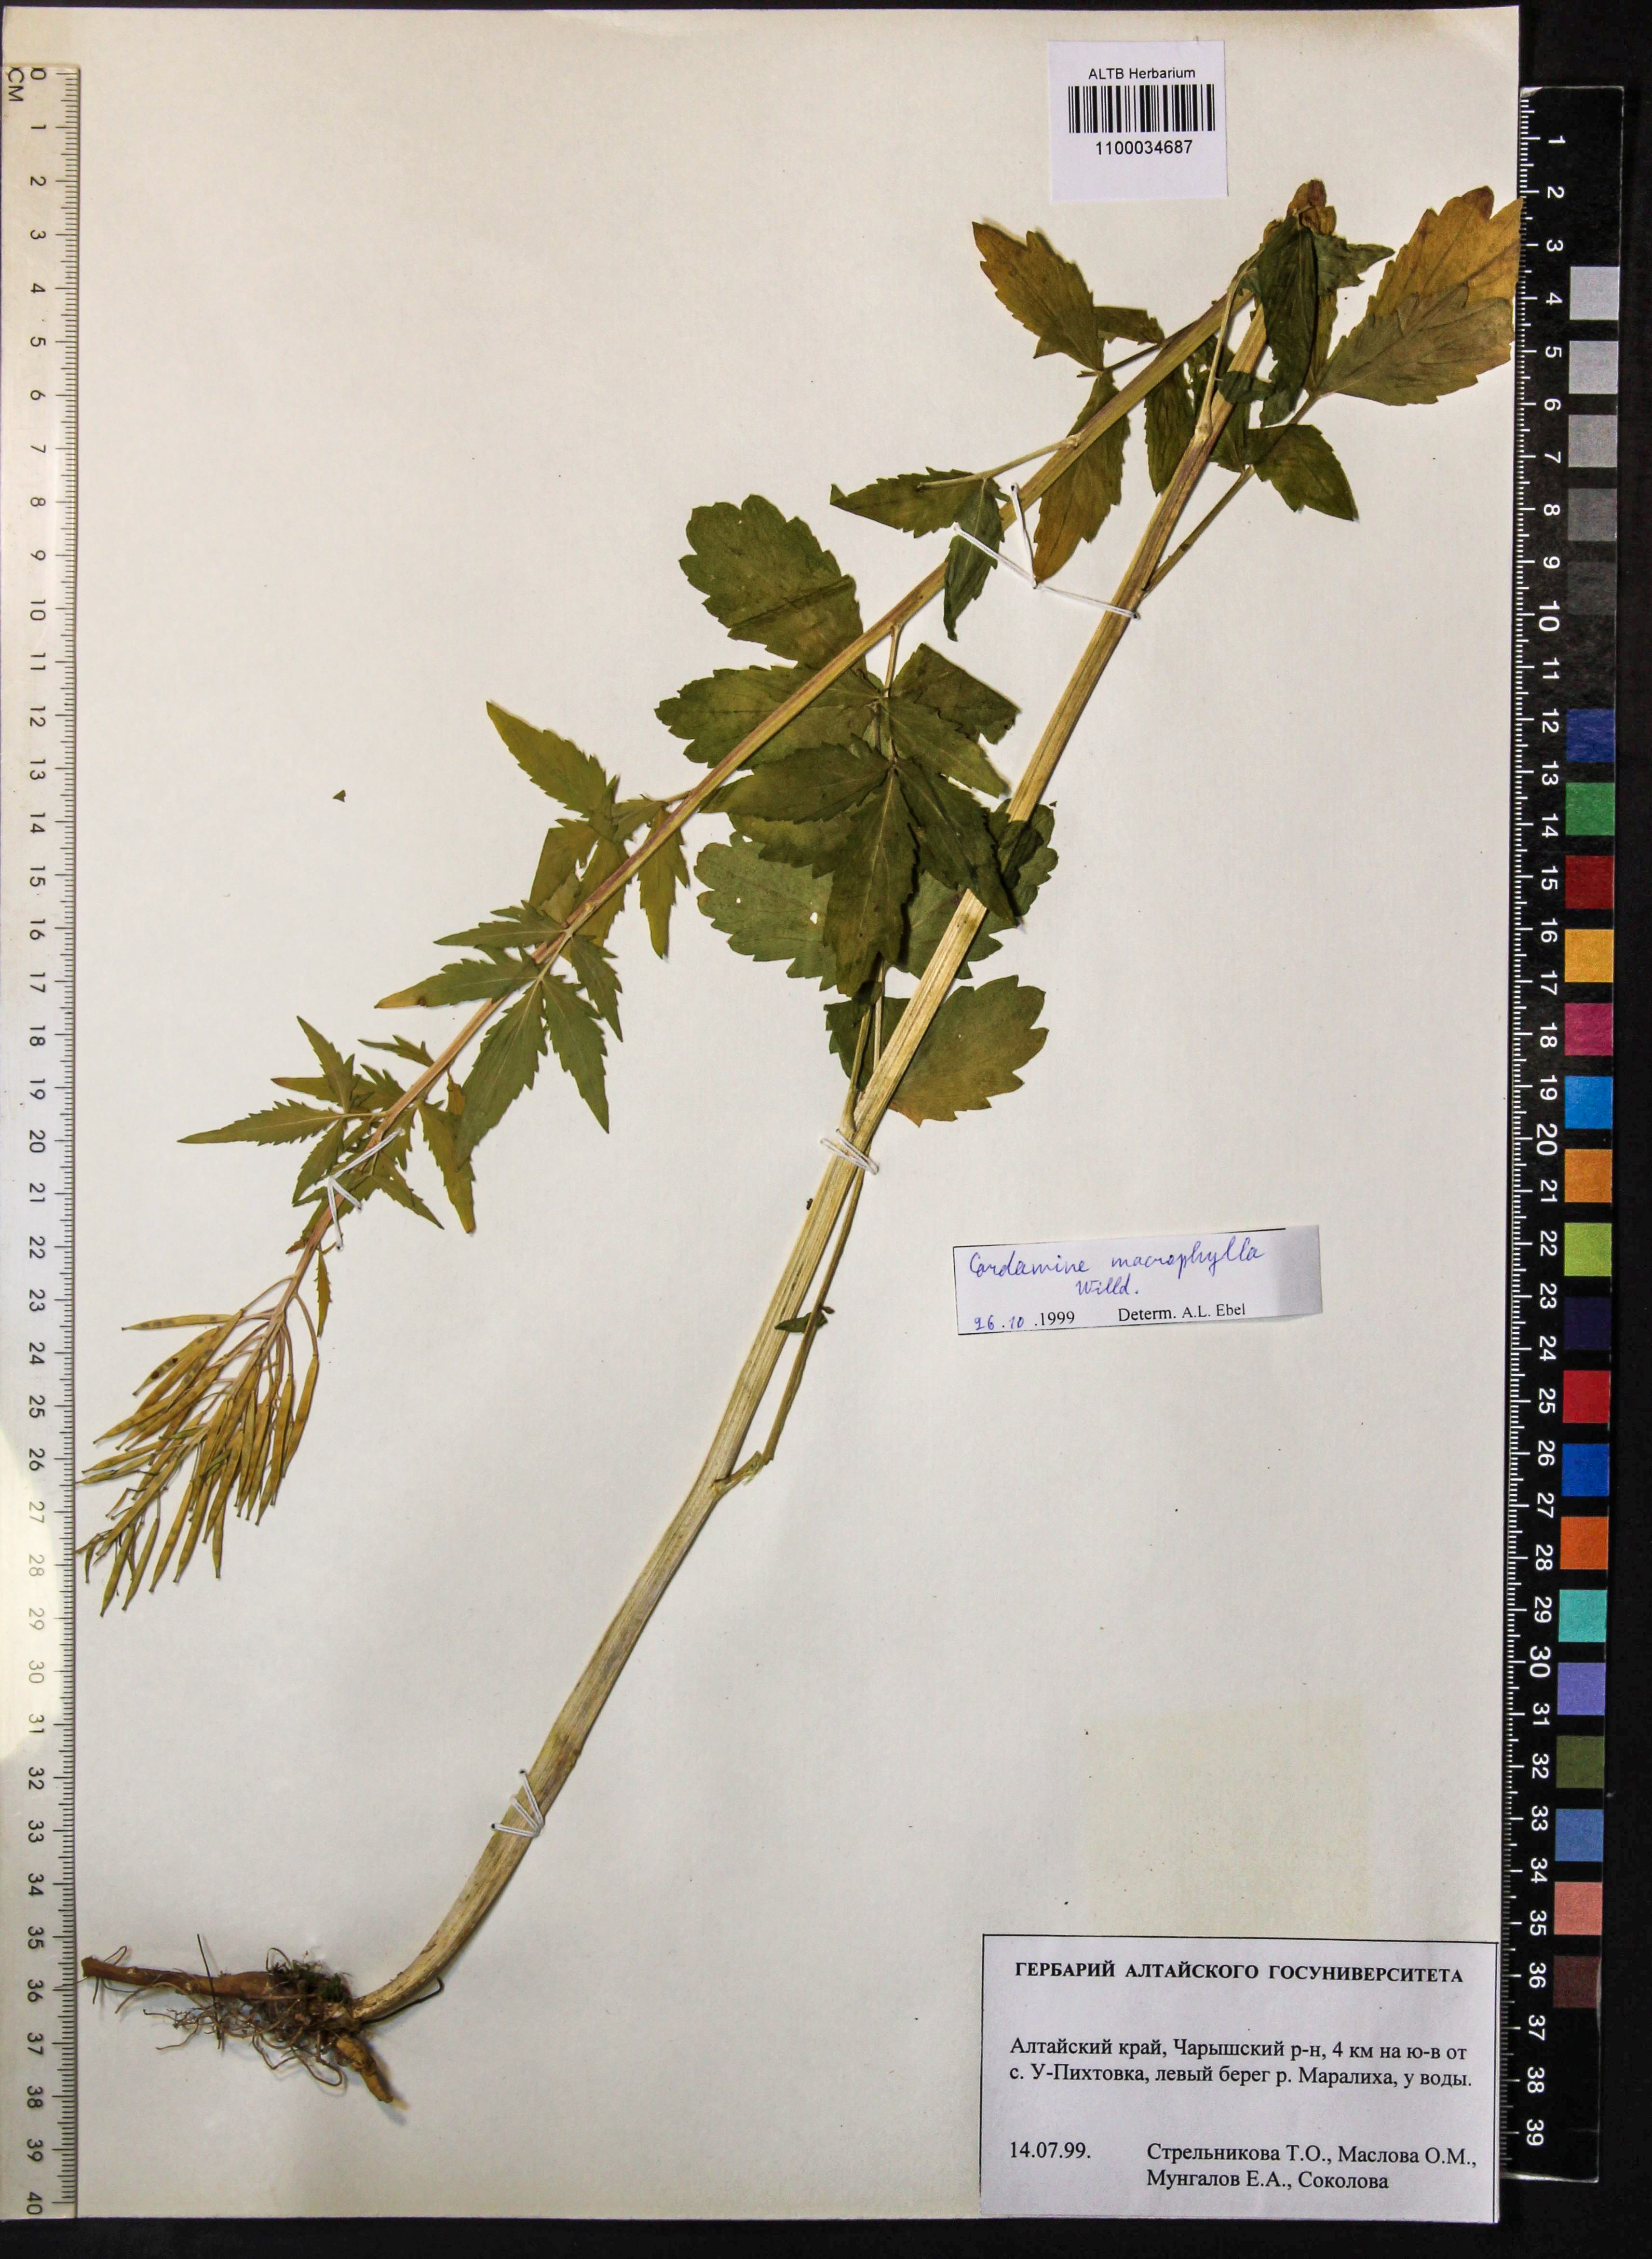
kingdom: Plantae
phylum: Tracheophyta
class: Magnoliopsida
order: Brassicales
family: Brassicaceae
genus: Cardamine
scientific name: Cardamine macrophylla
